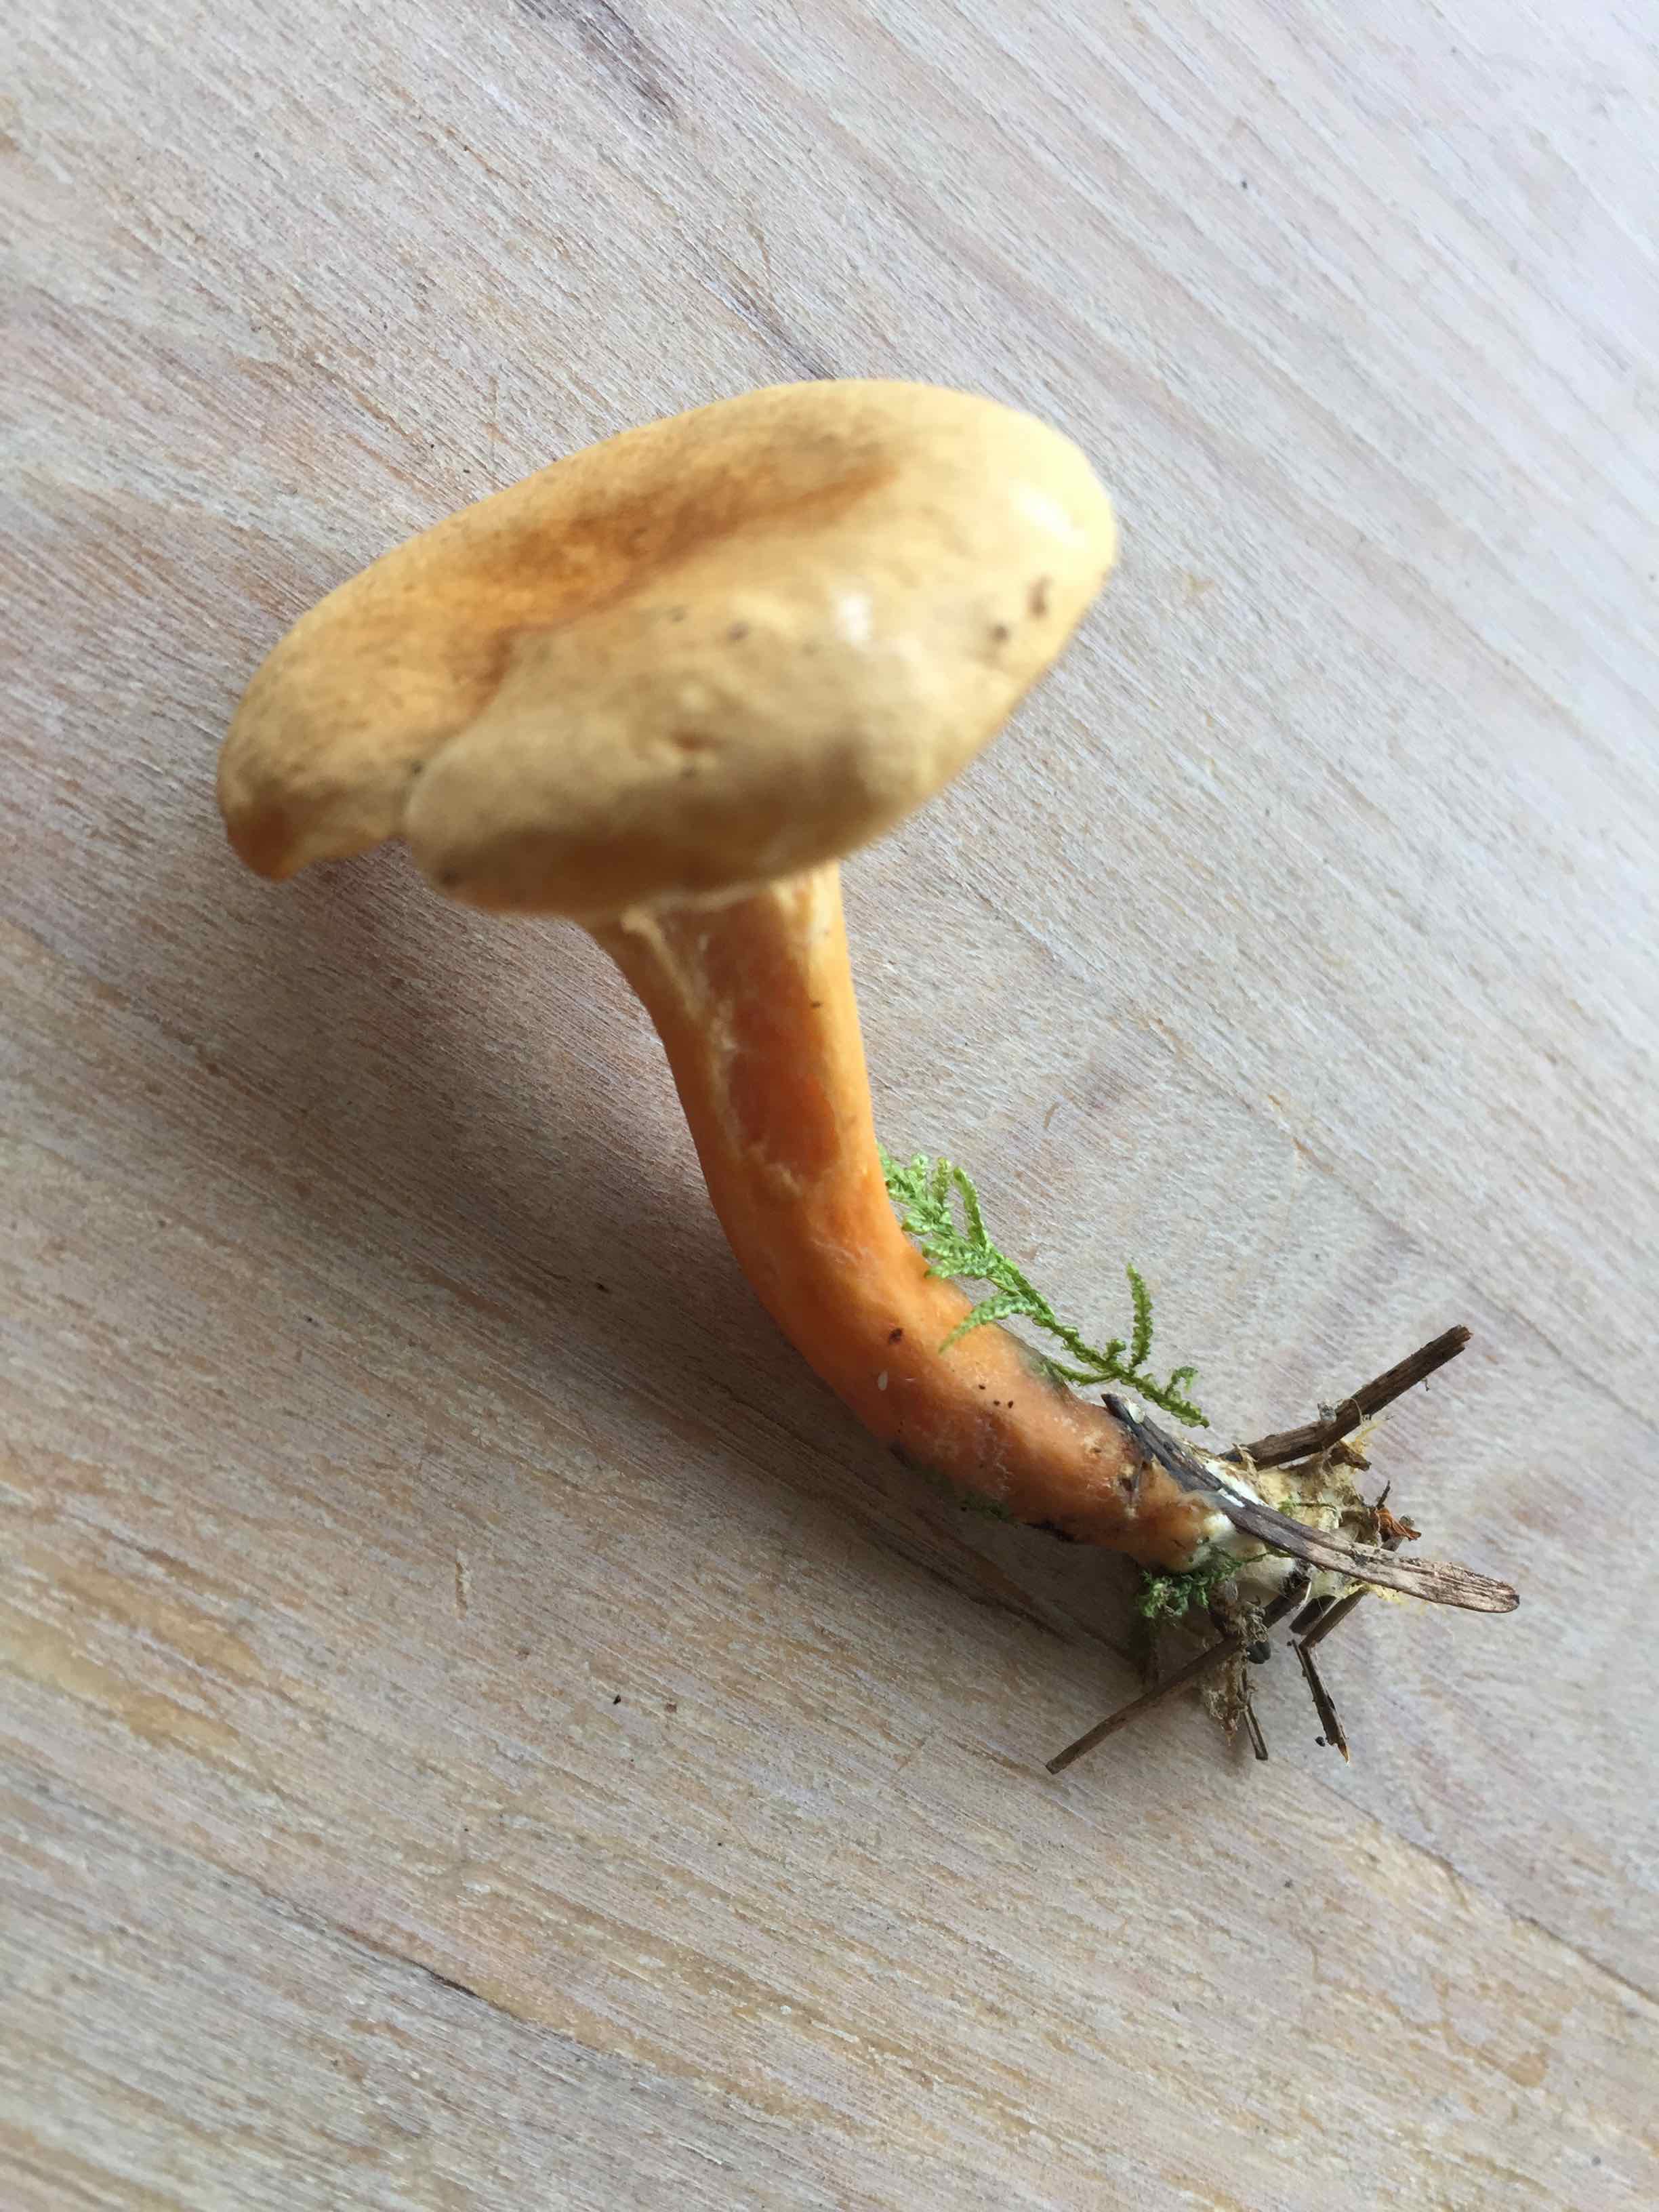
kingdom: Fungi
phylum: Basidiomycota
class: Agaricomycetes
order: Boletales
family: Hygrophoropsidaceae
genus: Hygrophoropsis
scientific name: Hygrophoropsis aurantiaca
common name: almindelig orangekantarel
